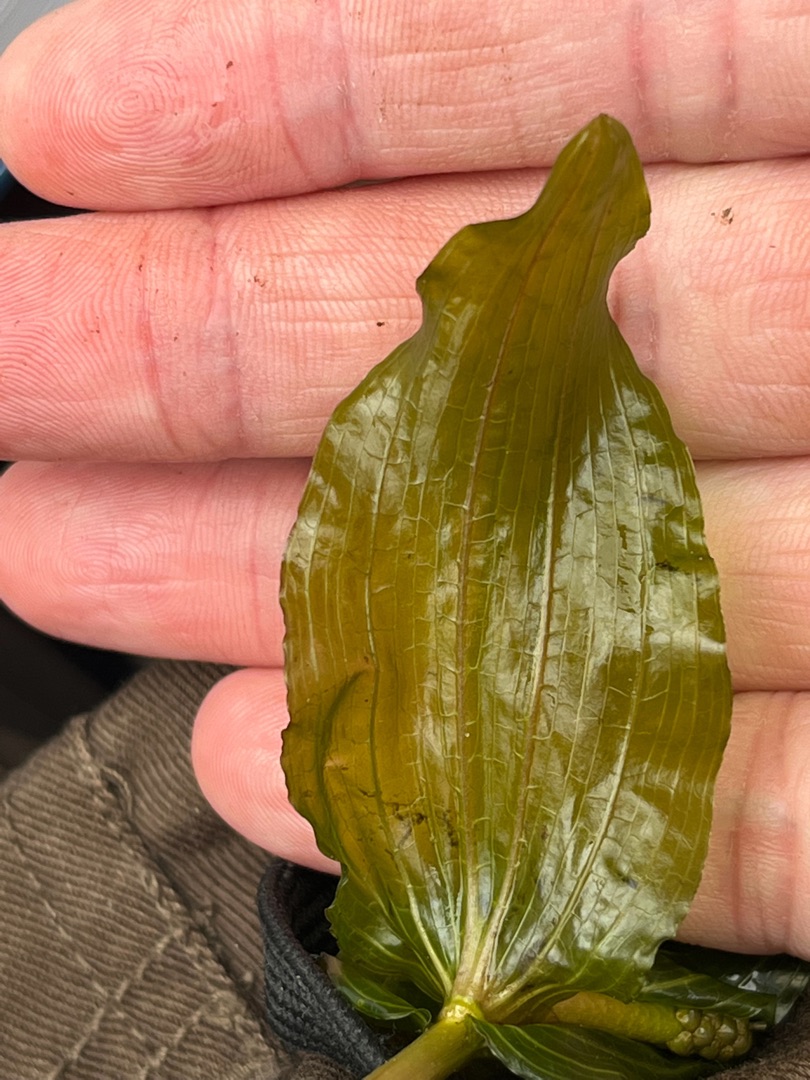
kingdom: Plantae
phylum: Tracheophyta
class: Liliopsida
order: Alismatales
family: Potamogetonaceae
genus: Potamogeton
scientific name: Potamogeton perfoliatus
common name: Hjertebladet vandaks
